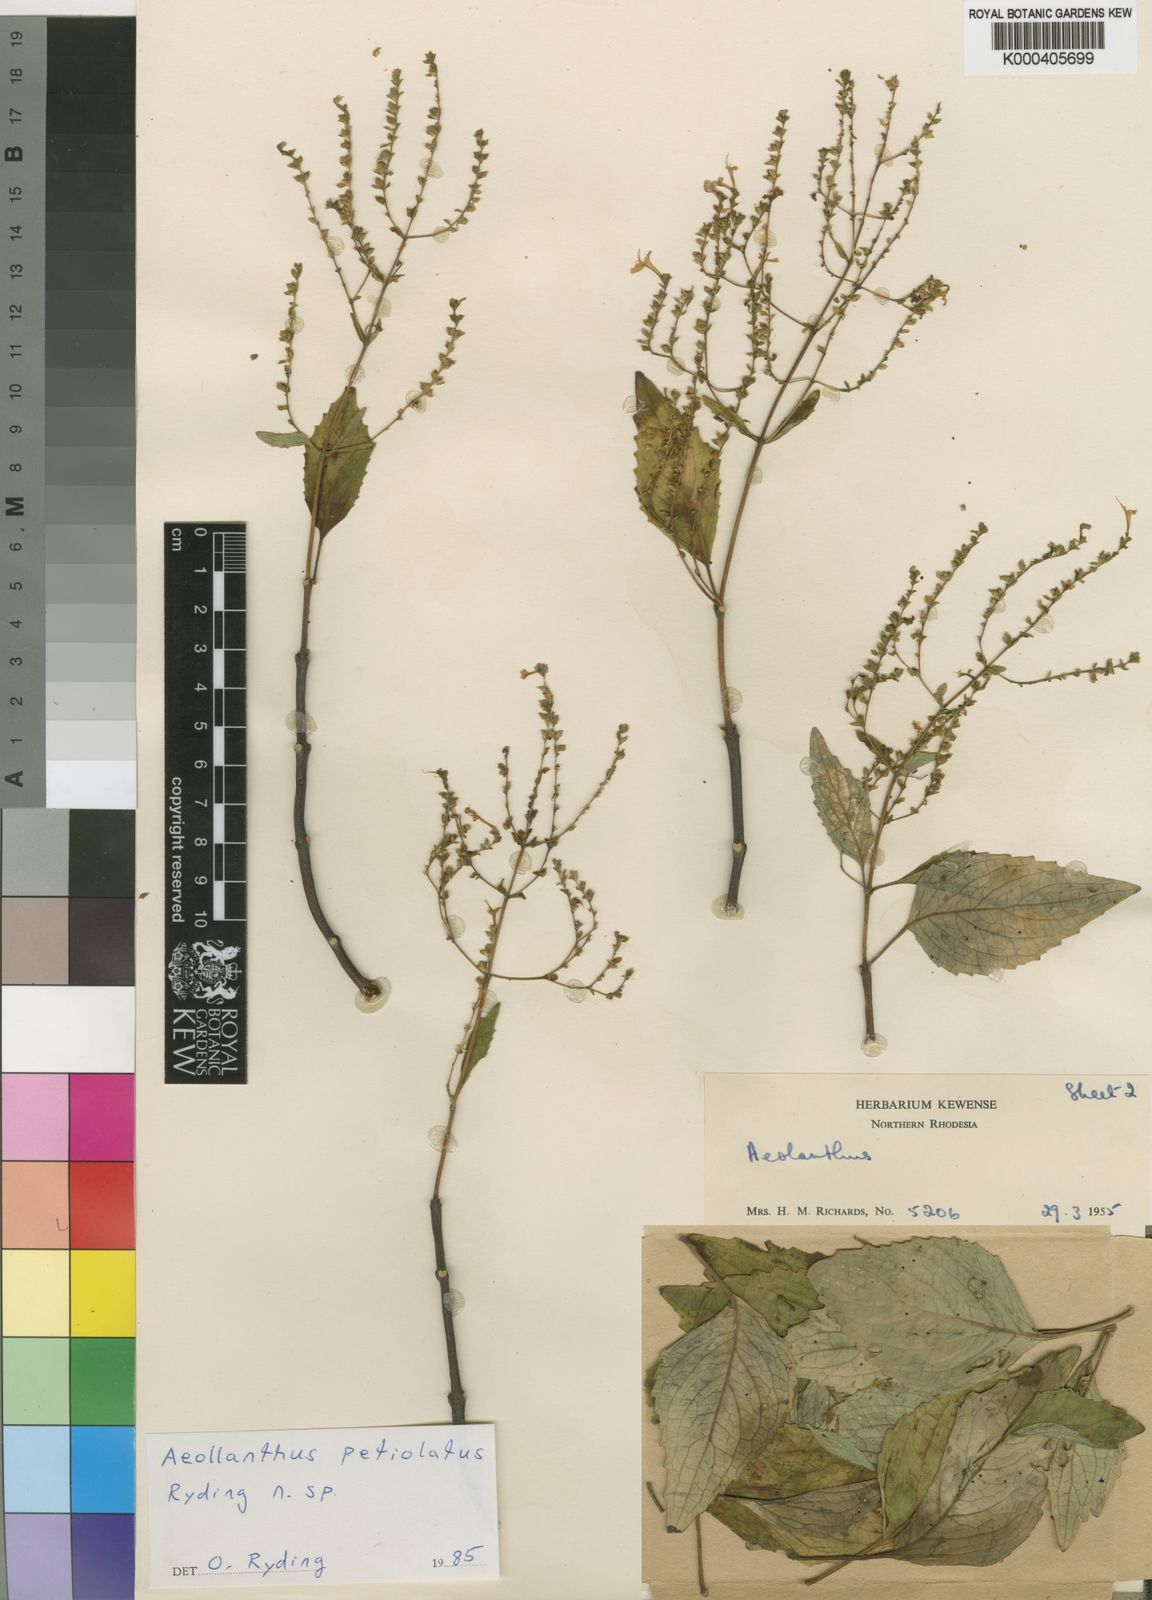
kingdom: Plantae
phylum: Tracheophyta
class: Magnoliopsida
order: Lamiales
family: Lamiaceae
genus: Aeollanthus
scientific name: Aeollanthus petiolatus
